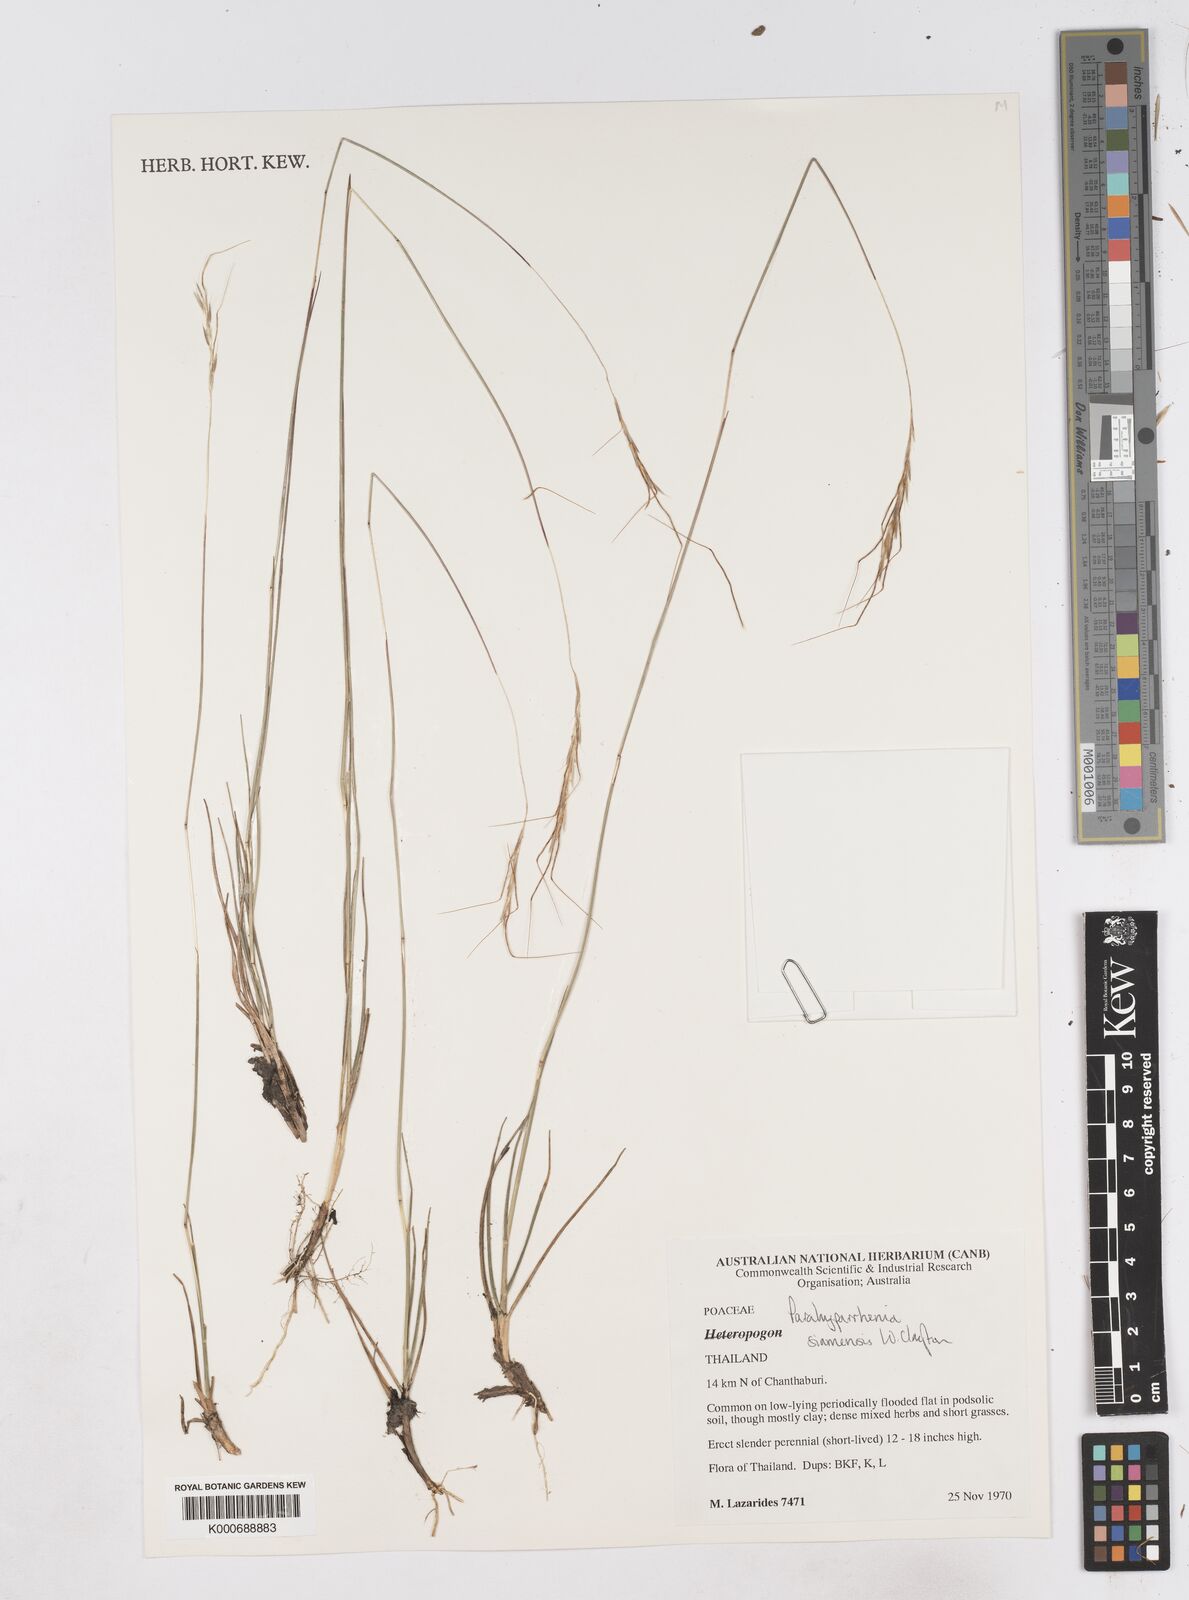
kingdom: Plantae
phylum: Tracheophyta
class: Liliopsida
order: Poales
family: Poaceae
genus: Parahyparrhenia
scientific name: Parahyparrhenia siamensis
